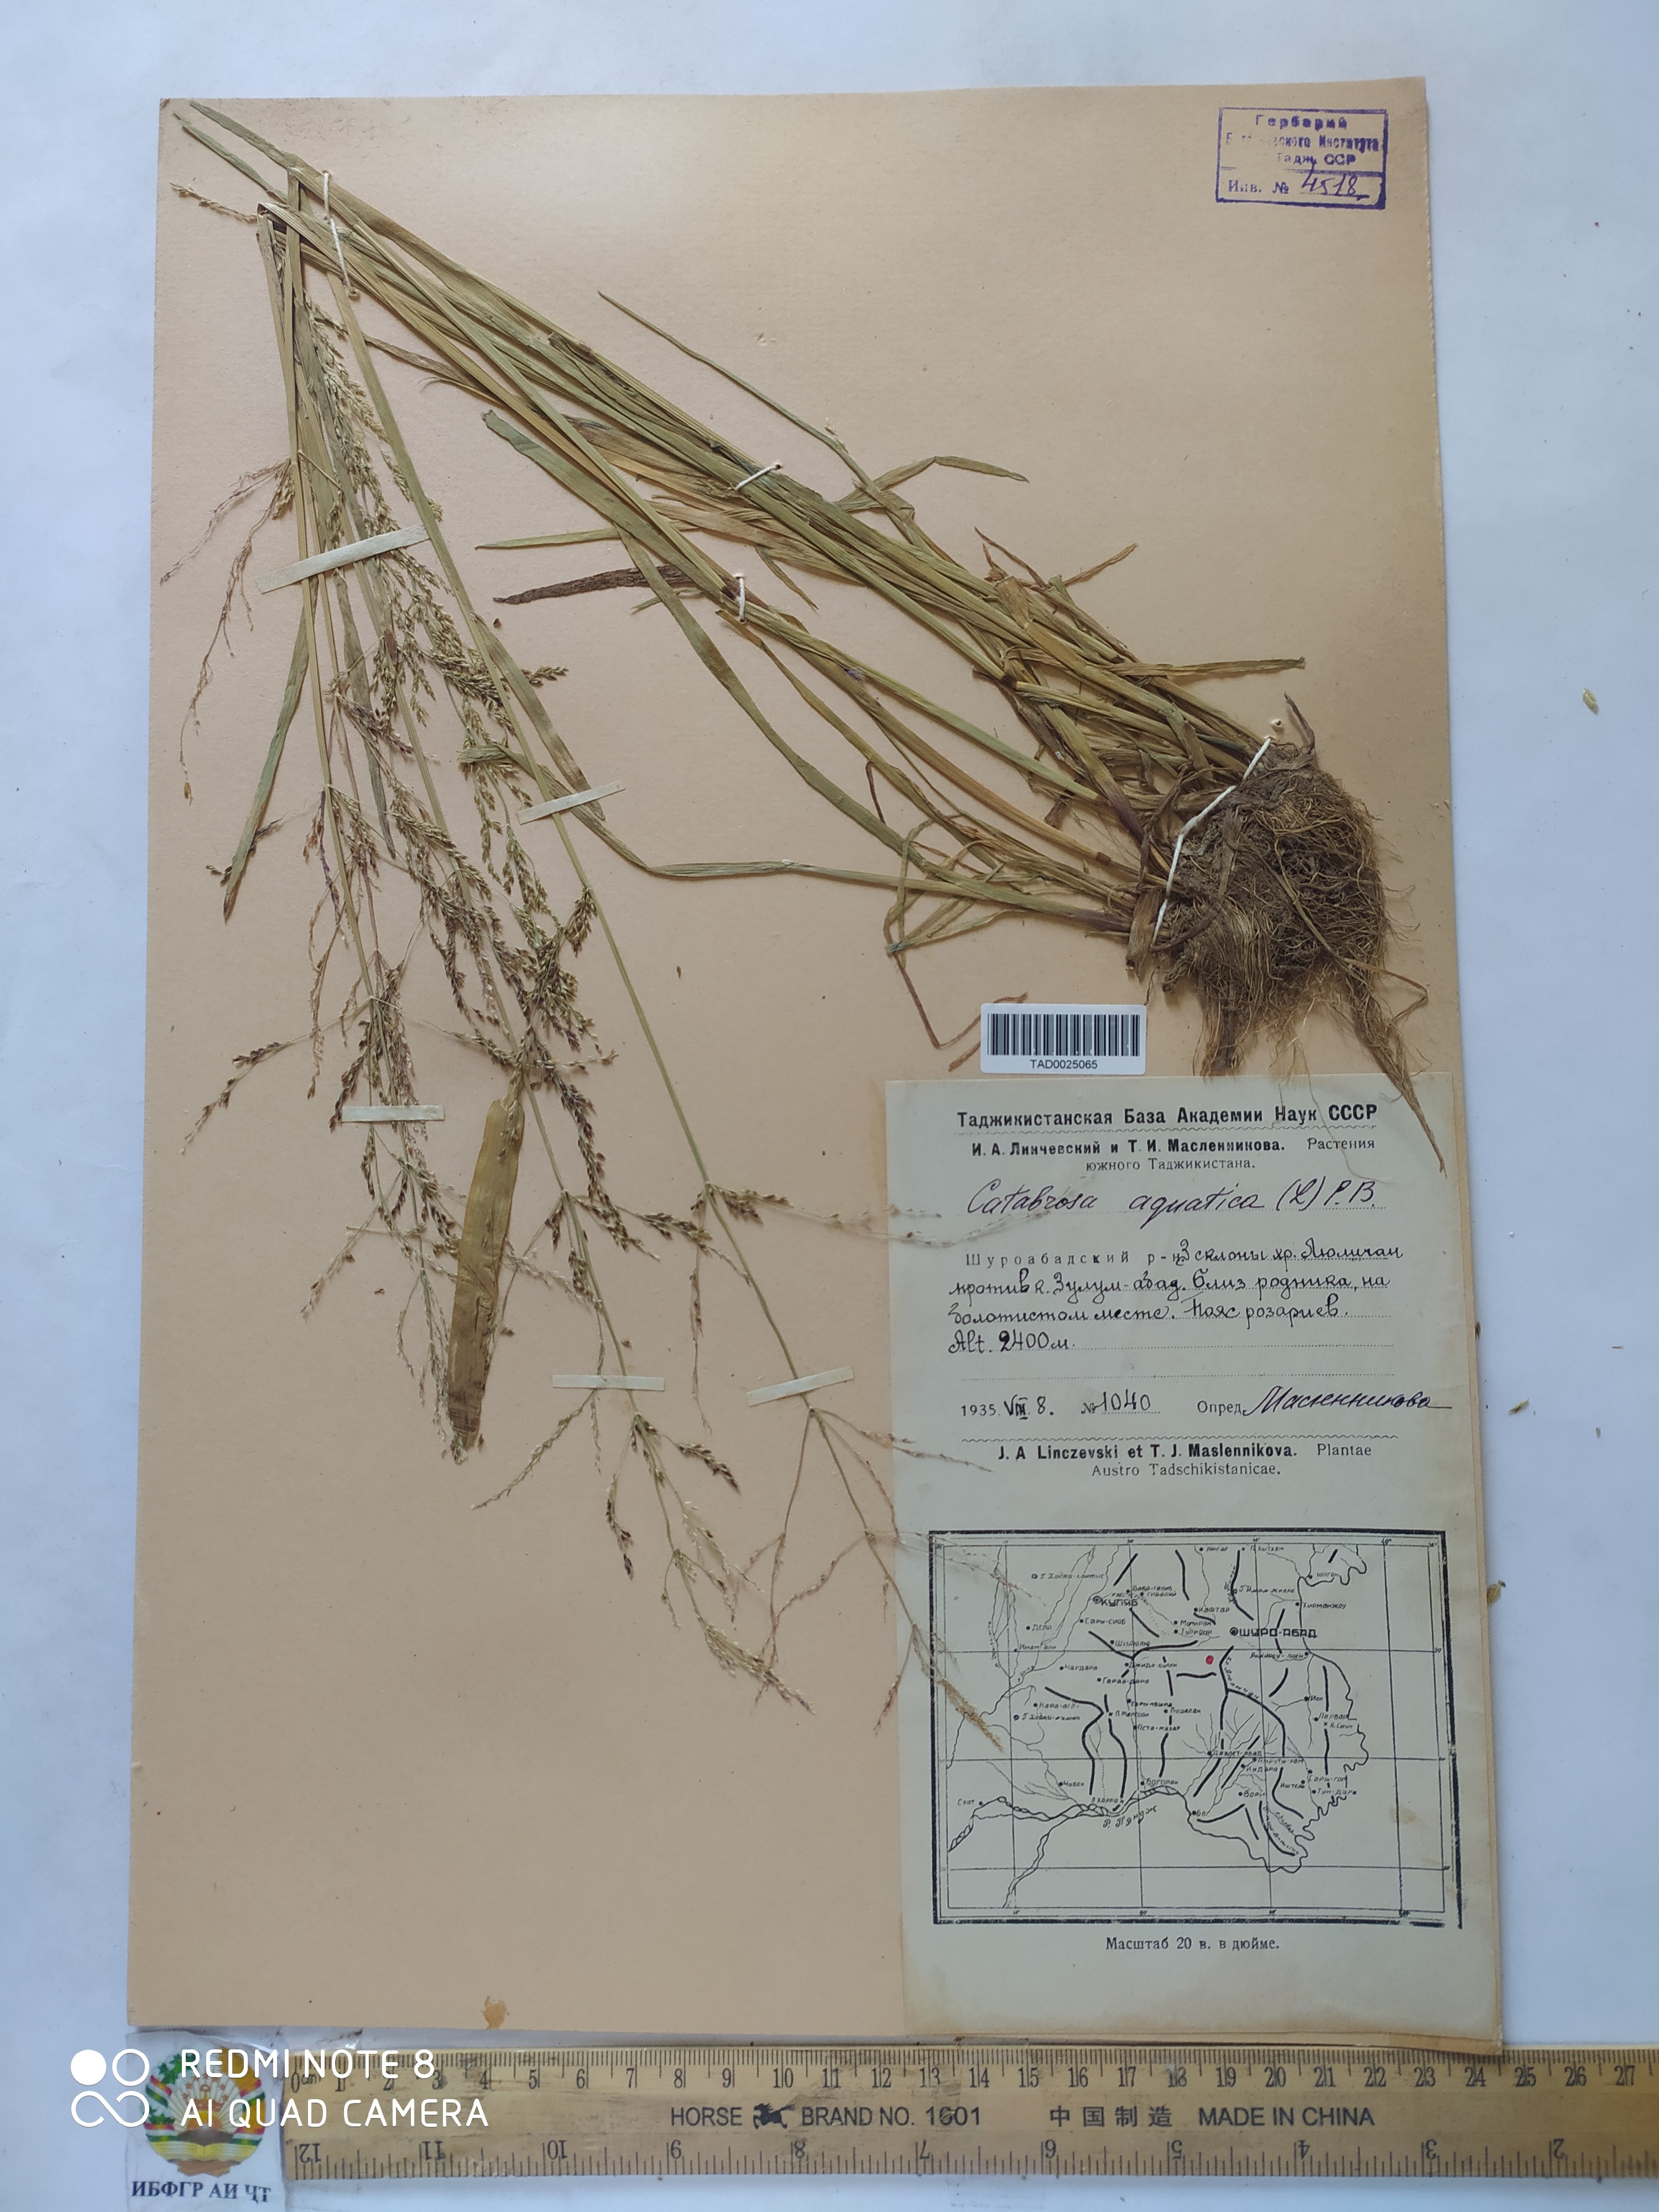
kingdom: Plantae
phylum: Tracheophyta
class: Liliopsida
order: Poales
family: Poaceae
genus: Catabrosa
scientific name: Catabrosa aquatica
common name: Whorl-grass
